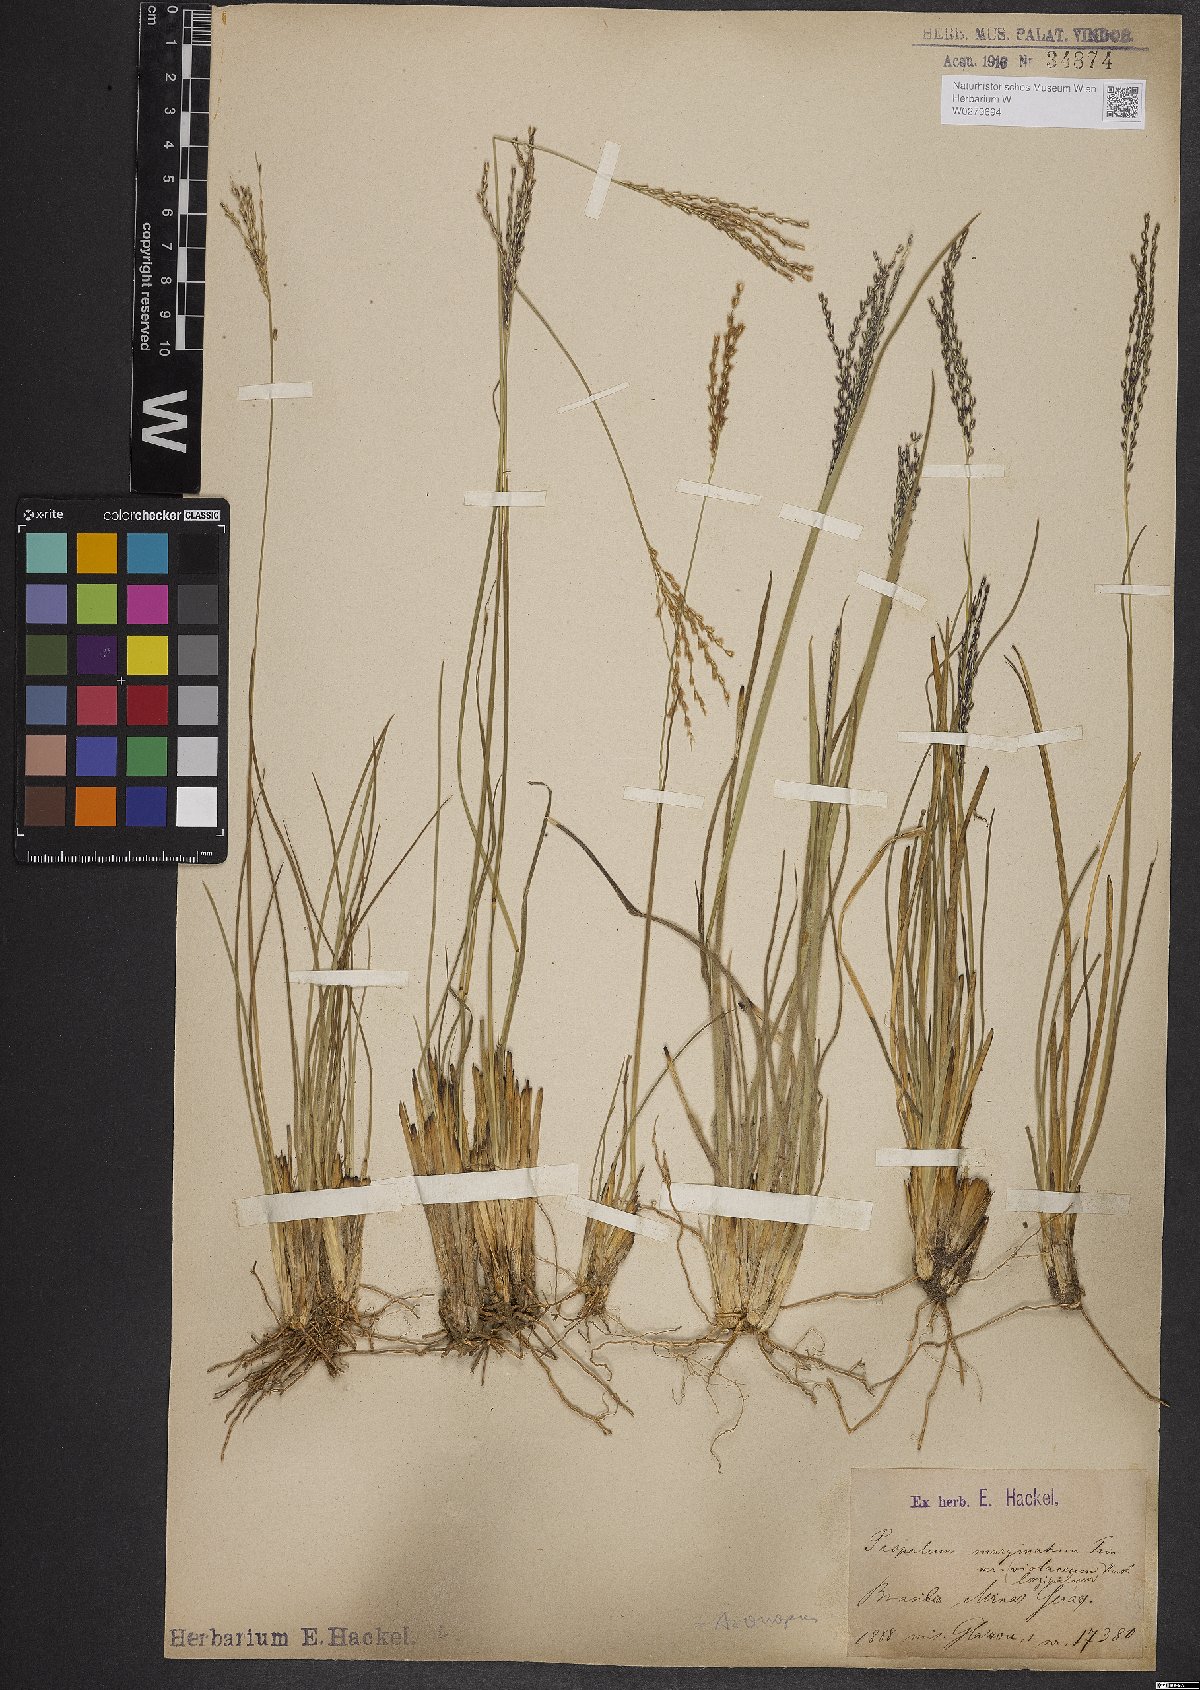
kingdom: Plantae
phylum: Tracheophyta
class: Liliopsida
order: Poales
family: Poaceae
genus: Axonopus
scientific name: Axonopus marginatus
